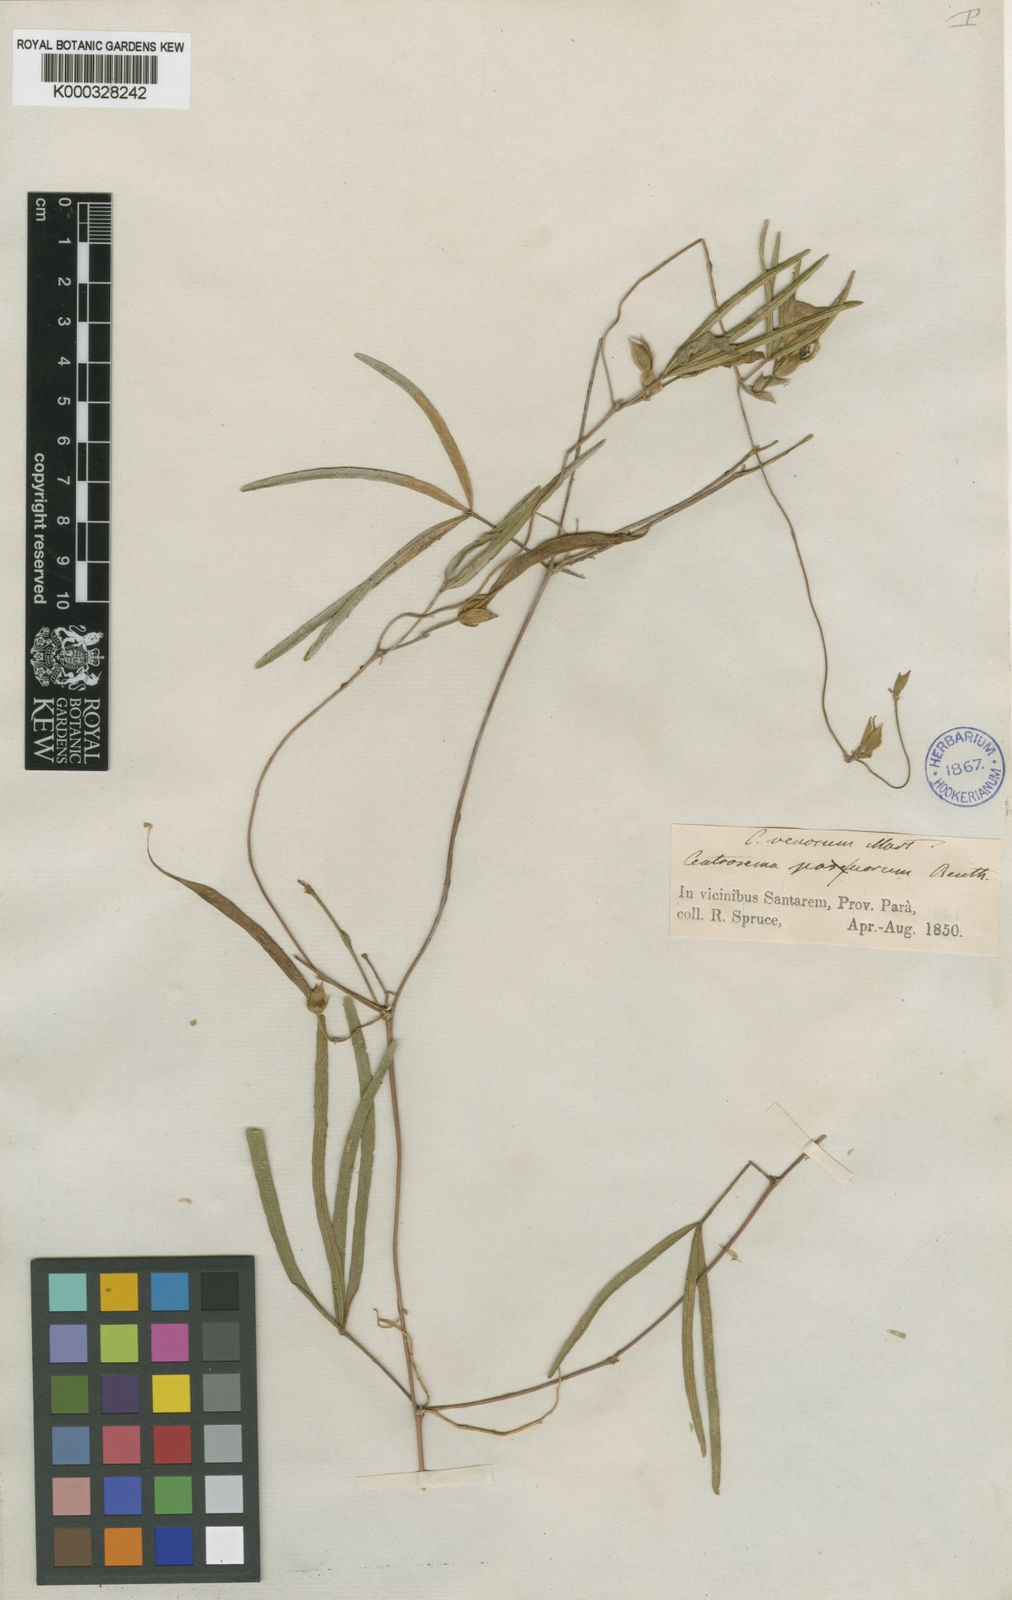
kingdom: Plantae
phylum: Tracheophyta
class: Magnoliopsida
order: Fabales
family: Fabaceae
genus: Centrosema
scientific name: Centrosema venosum
